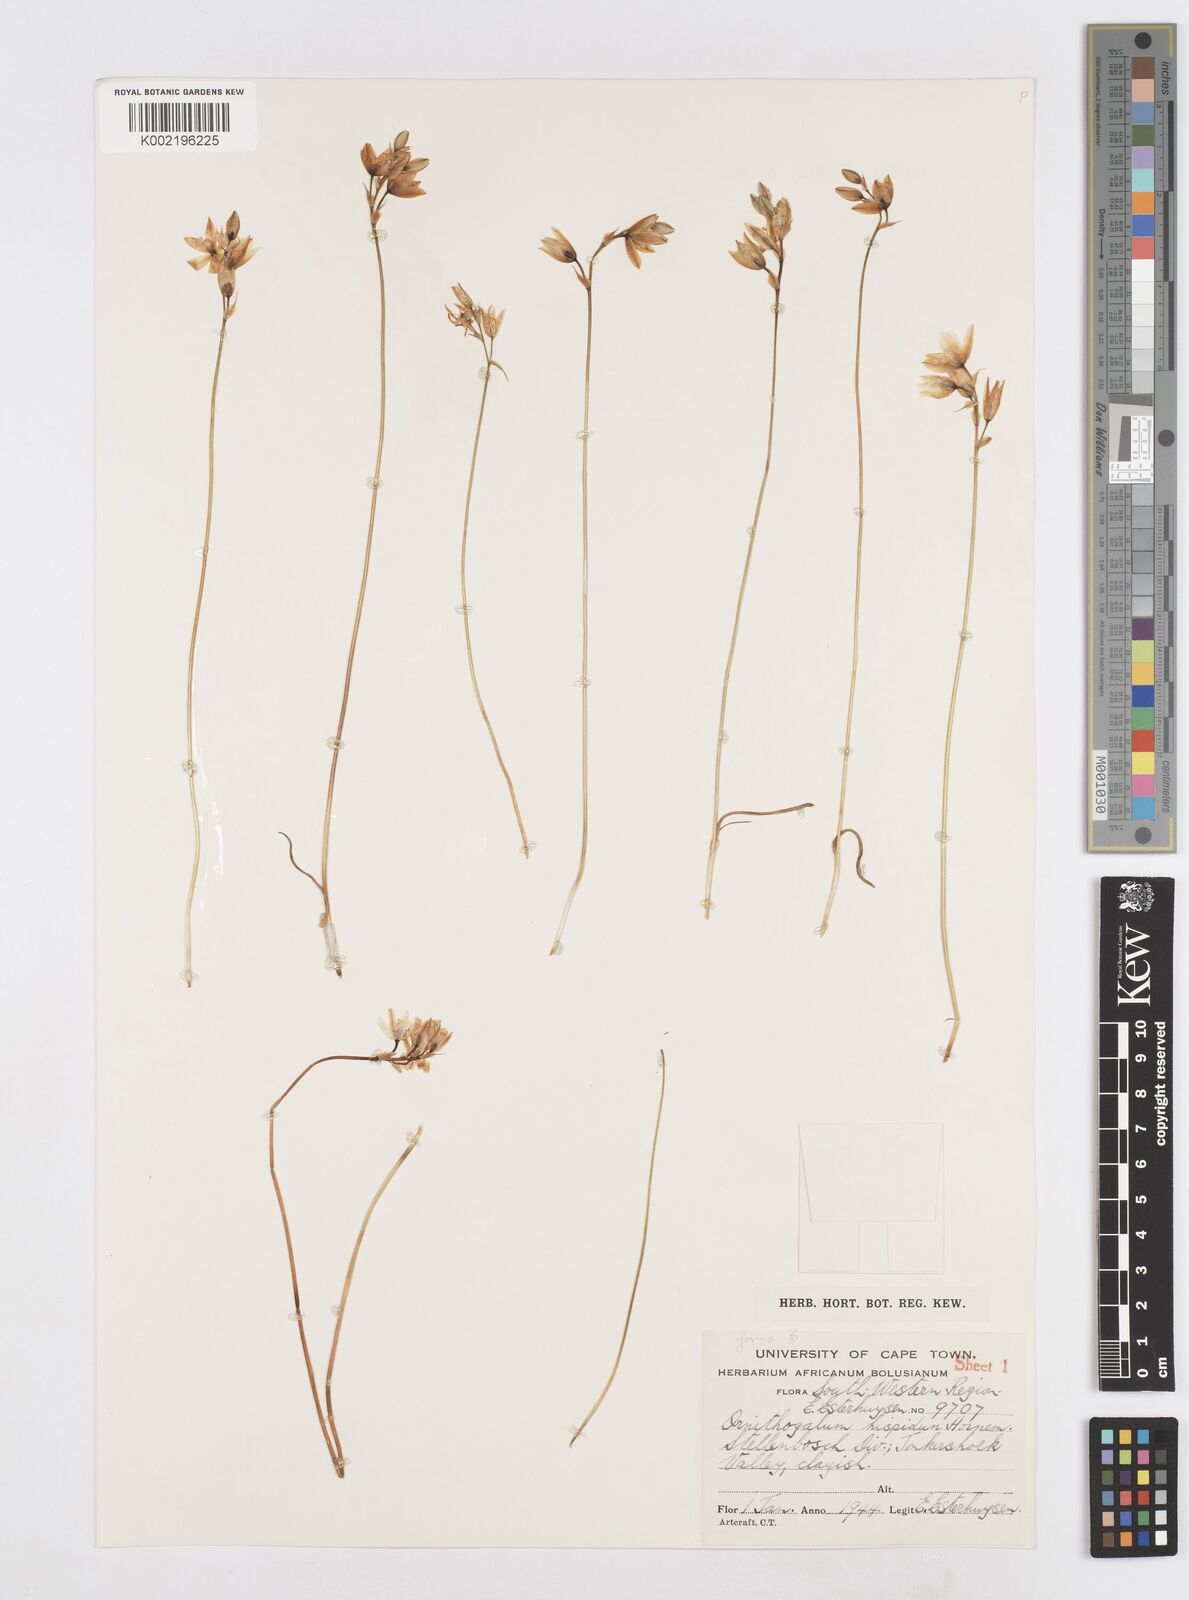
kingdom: Plantae
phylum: Tracheophyta
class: Liliopsida
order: Asparagales
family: Asparagaceae
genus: Ornithogalum
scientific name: Ornithogalum hispidum
